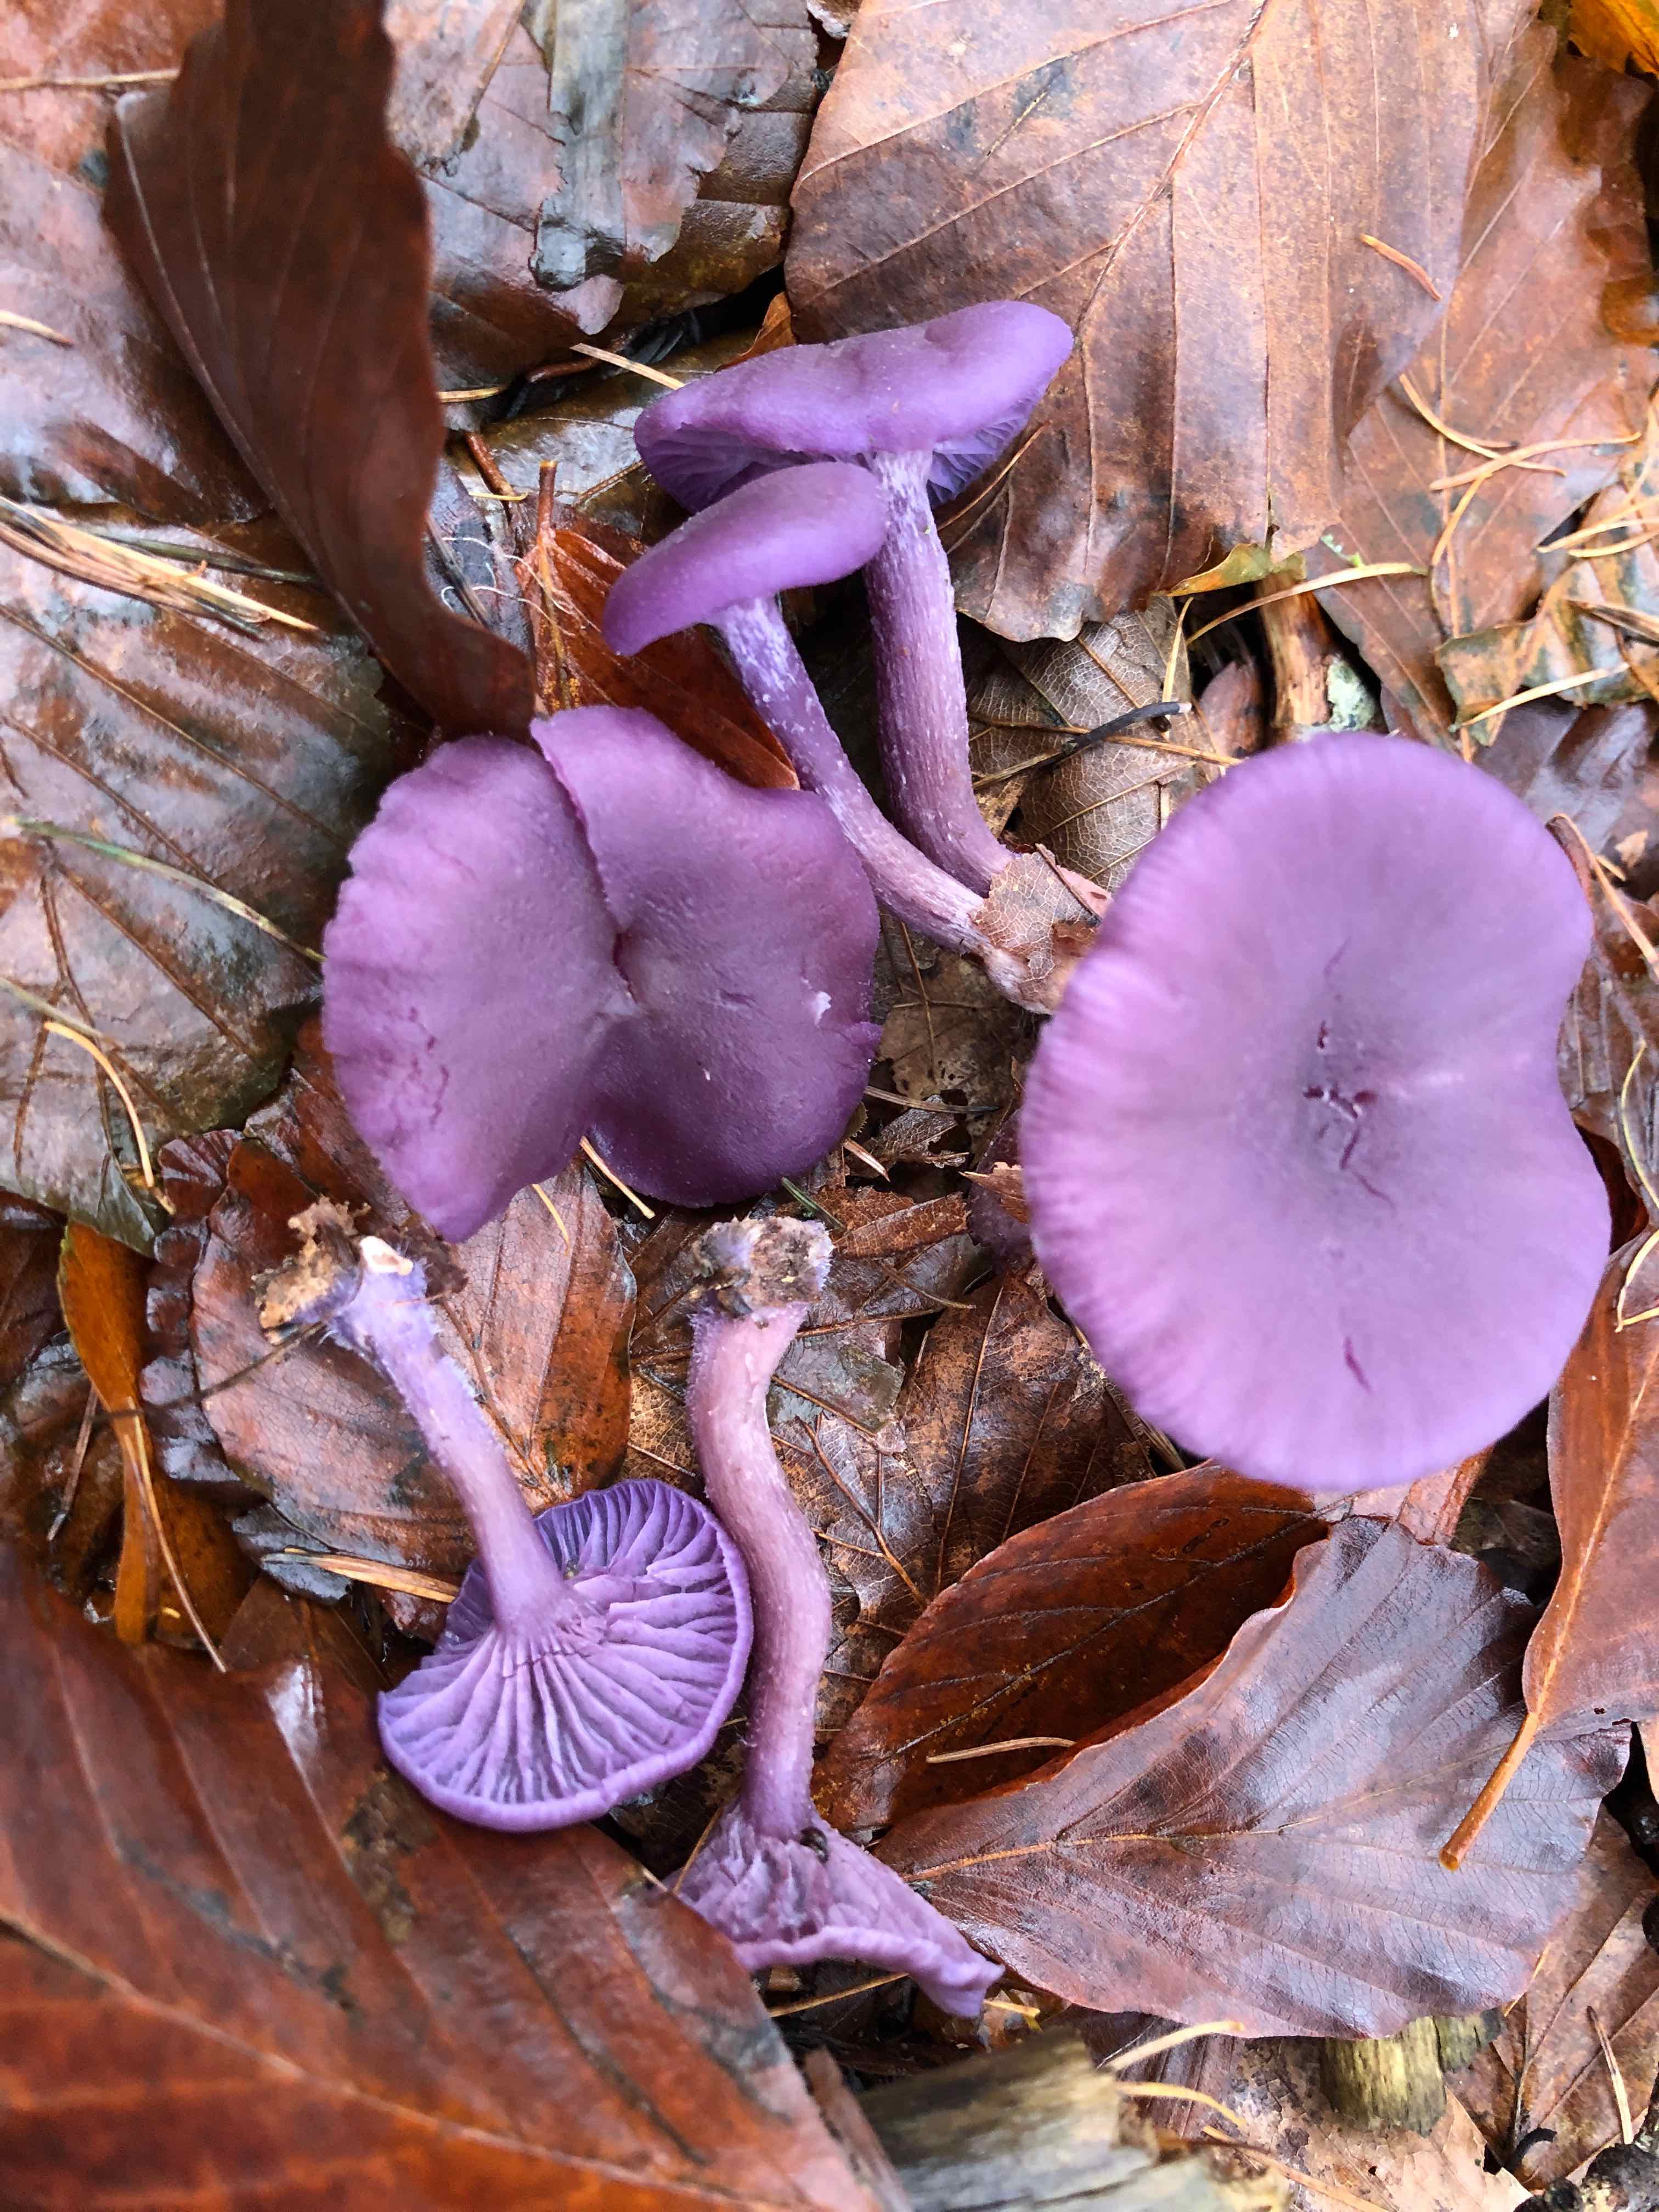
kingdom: Fungi
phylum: Basidiomycota
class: Agaricomycetes
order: Agaricales
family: Hydnangiaceae
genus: Laccaria
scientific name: Laccaria amethystina
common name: violet ametysthat
